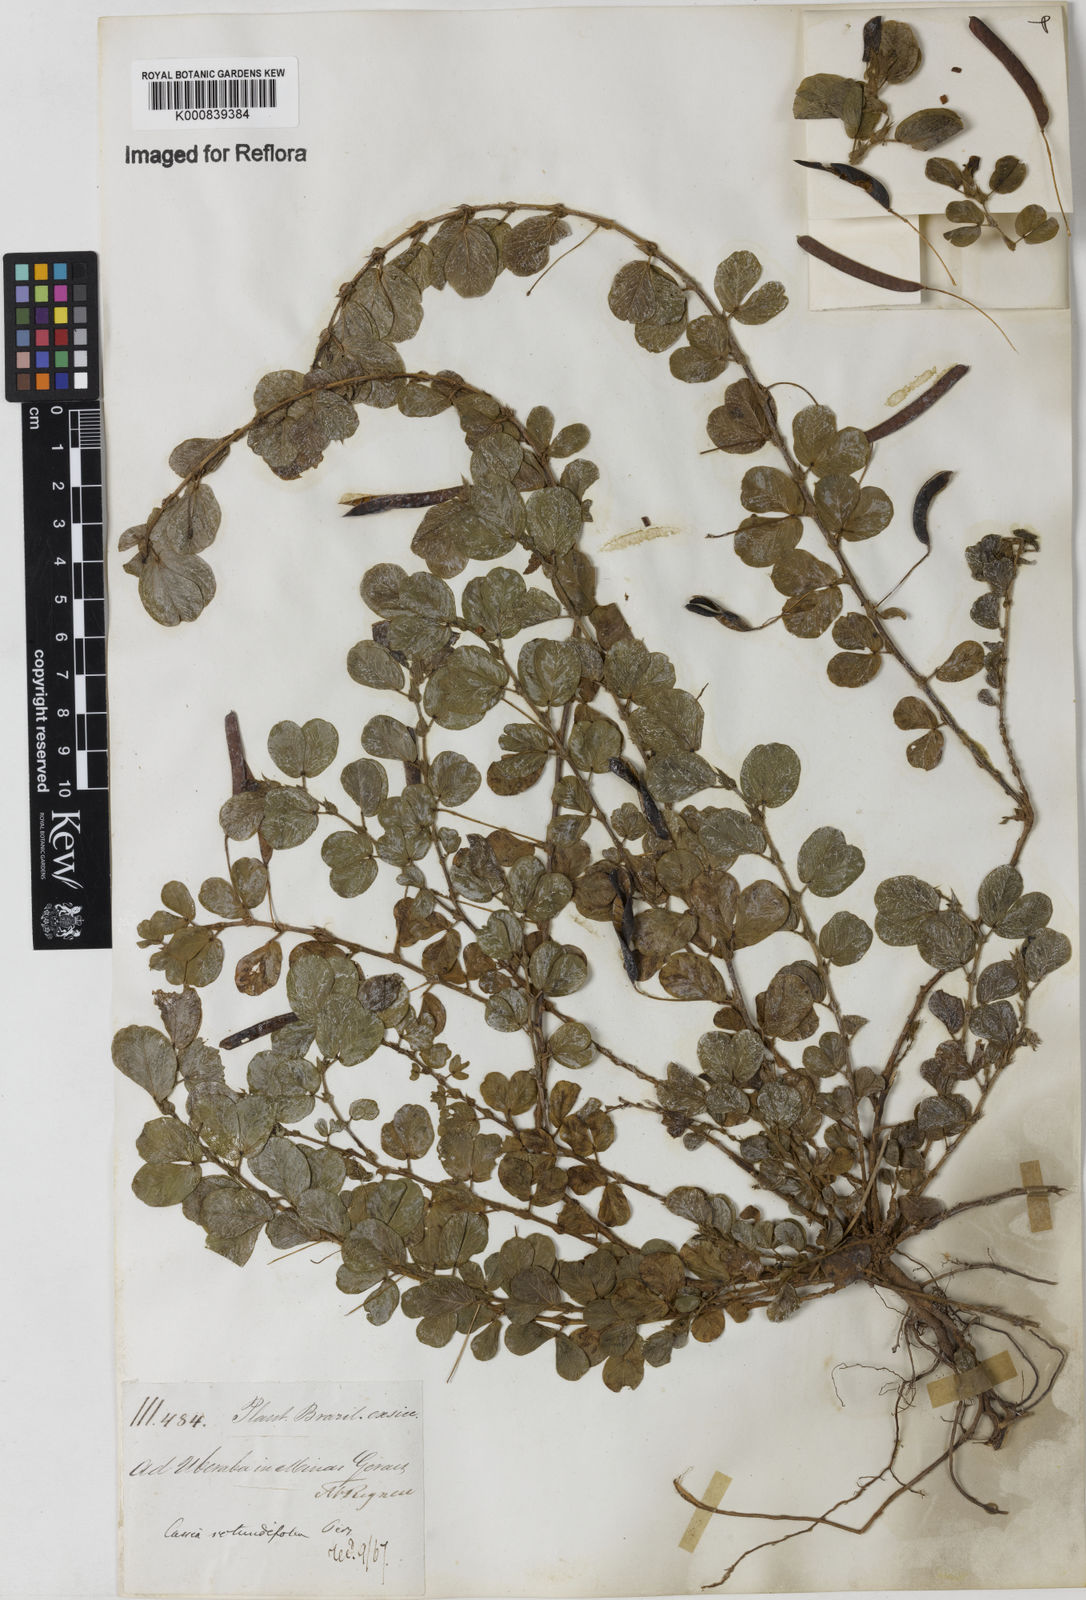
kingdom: Plantae
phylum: Tracheophyta
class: Magnoliopsida
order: Fabales
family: Fabaceae
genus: Chamaecrista
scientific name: Chamaecrista rotundifolia
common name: Round-leaf cassia
